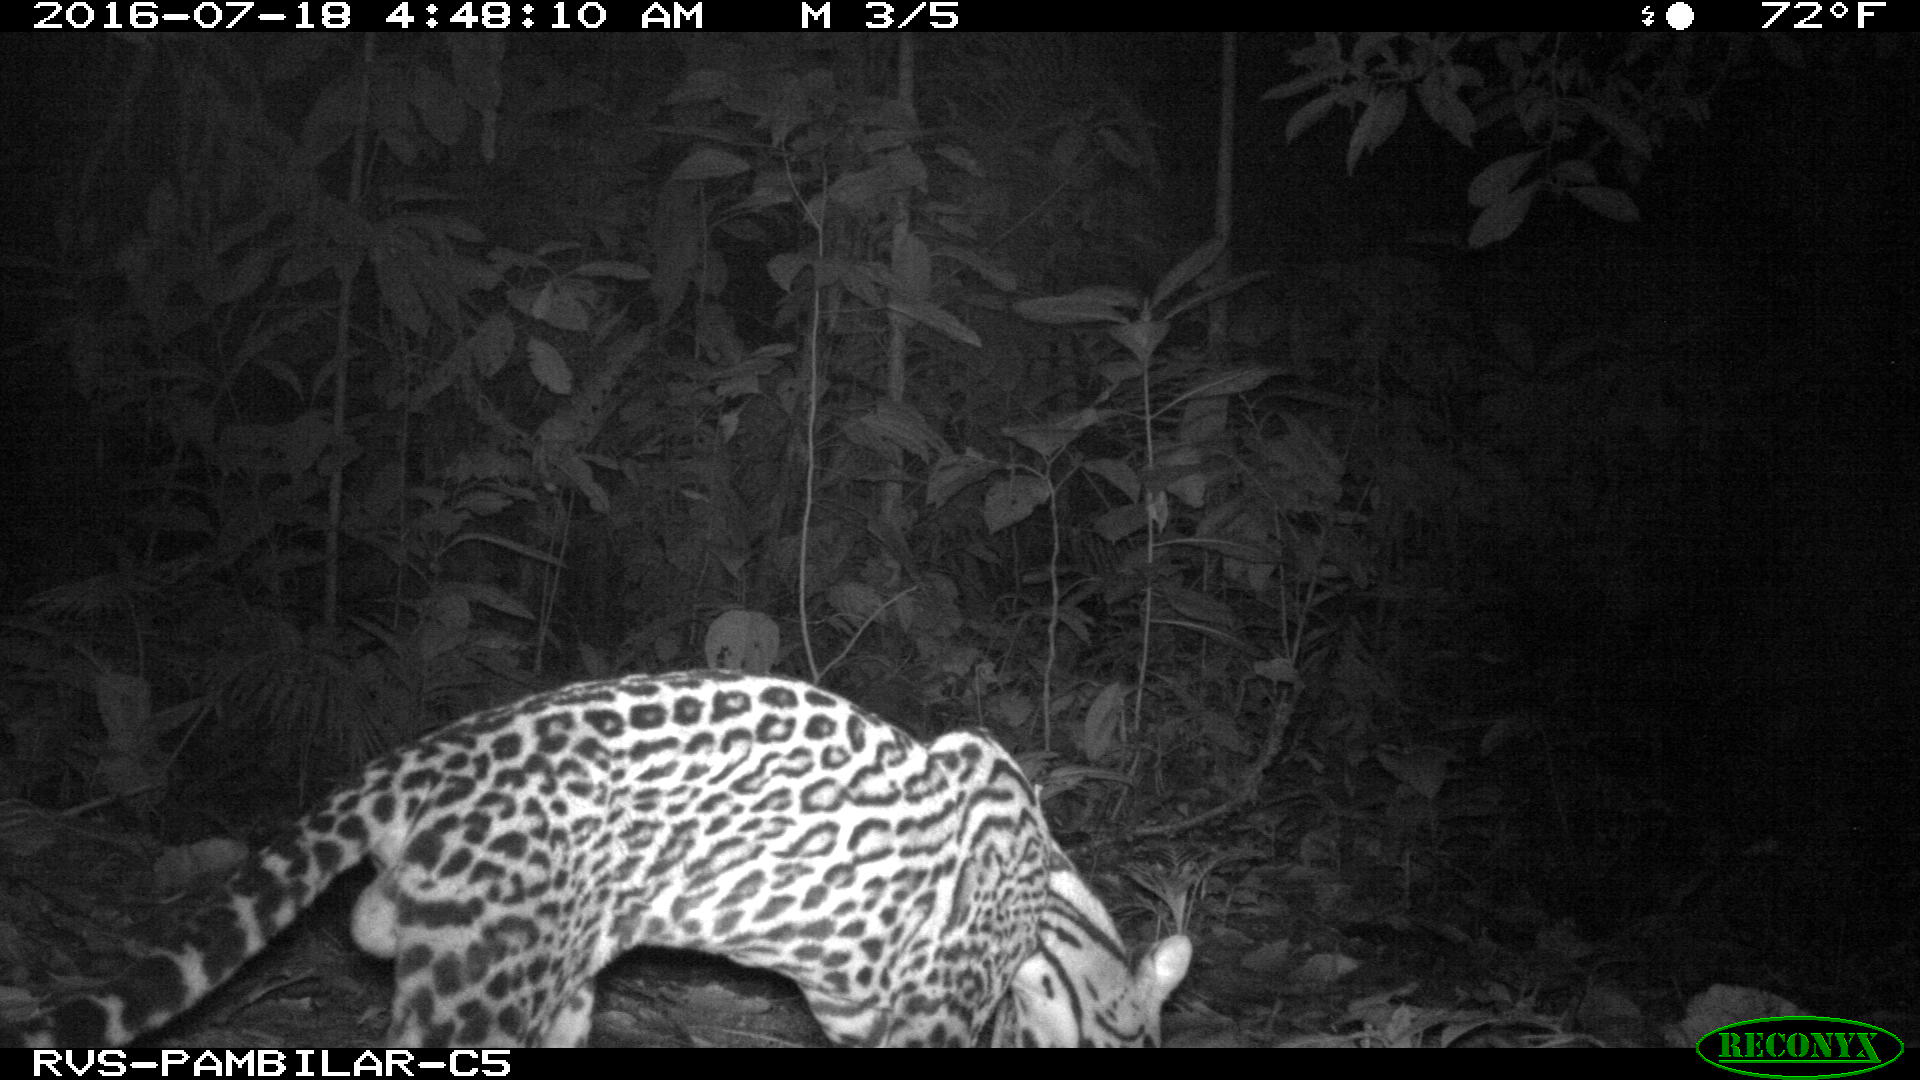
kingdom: Animalia
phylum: Chordata
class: Mammalia
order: Carnivora
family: Felidae
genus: Leopardus
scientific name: Leopardus pardalis
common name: Ocelot
